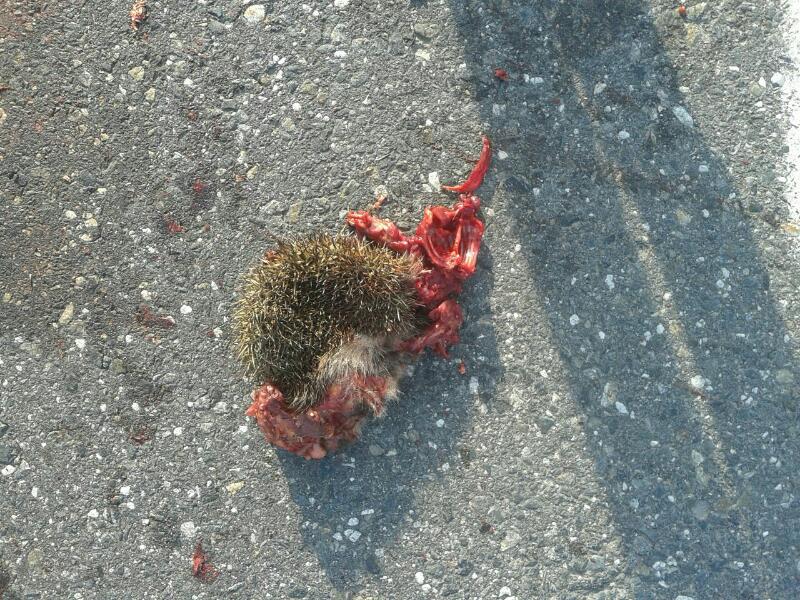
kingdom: Animalia
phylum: Chordata
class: Mammalia
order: Erinaceomorpha
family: Erinaceidae
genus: Erinaceus
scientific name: Erinaceus
